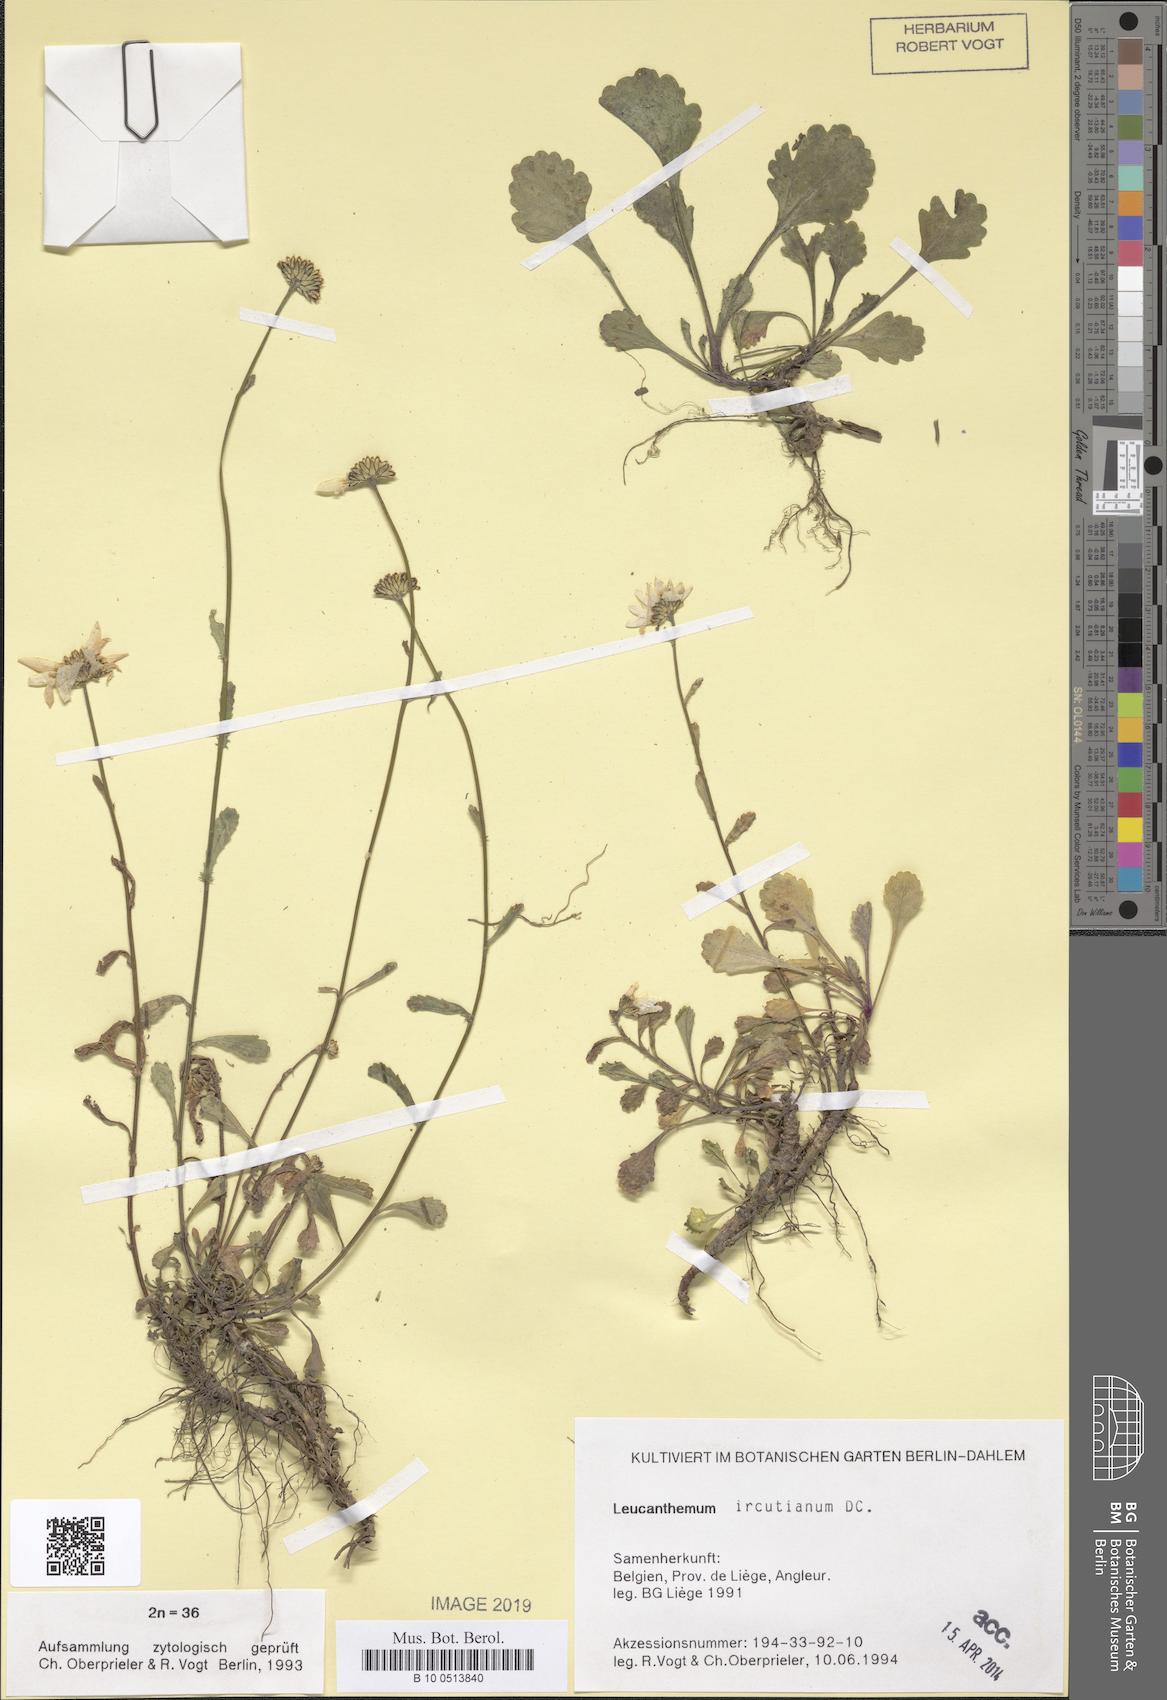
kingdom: Plantae
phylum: Tracheophyta
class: Magnoliopsida
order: Asterales
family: Asteraceae
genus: Leucanthemum
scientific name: Leucanthemum ircutianum
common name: Daisy
